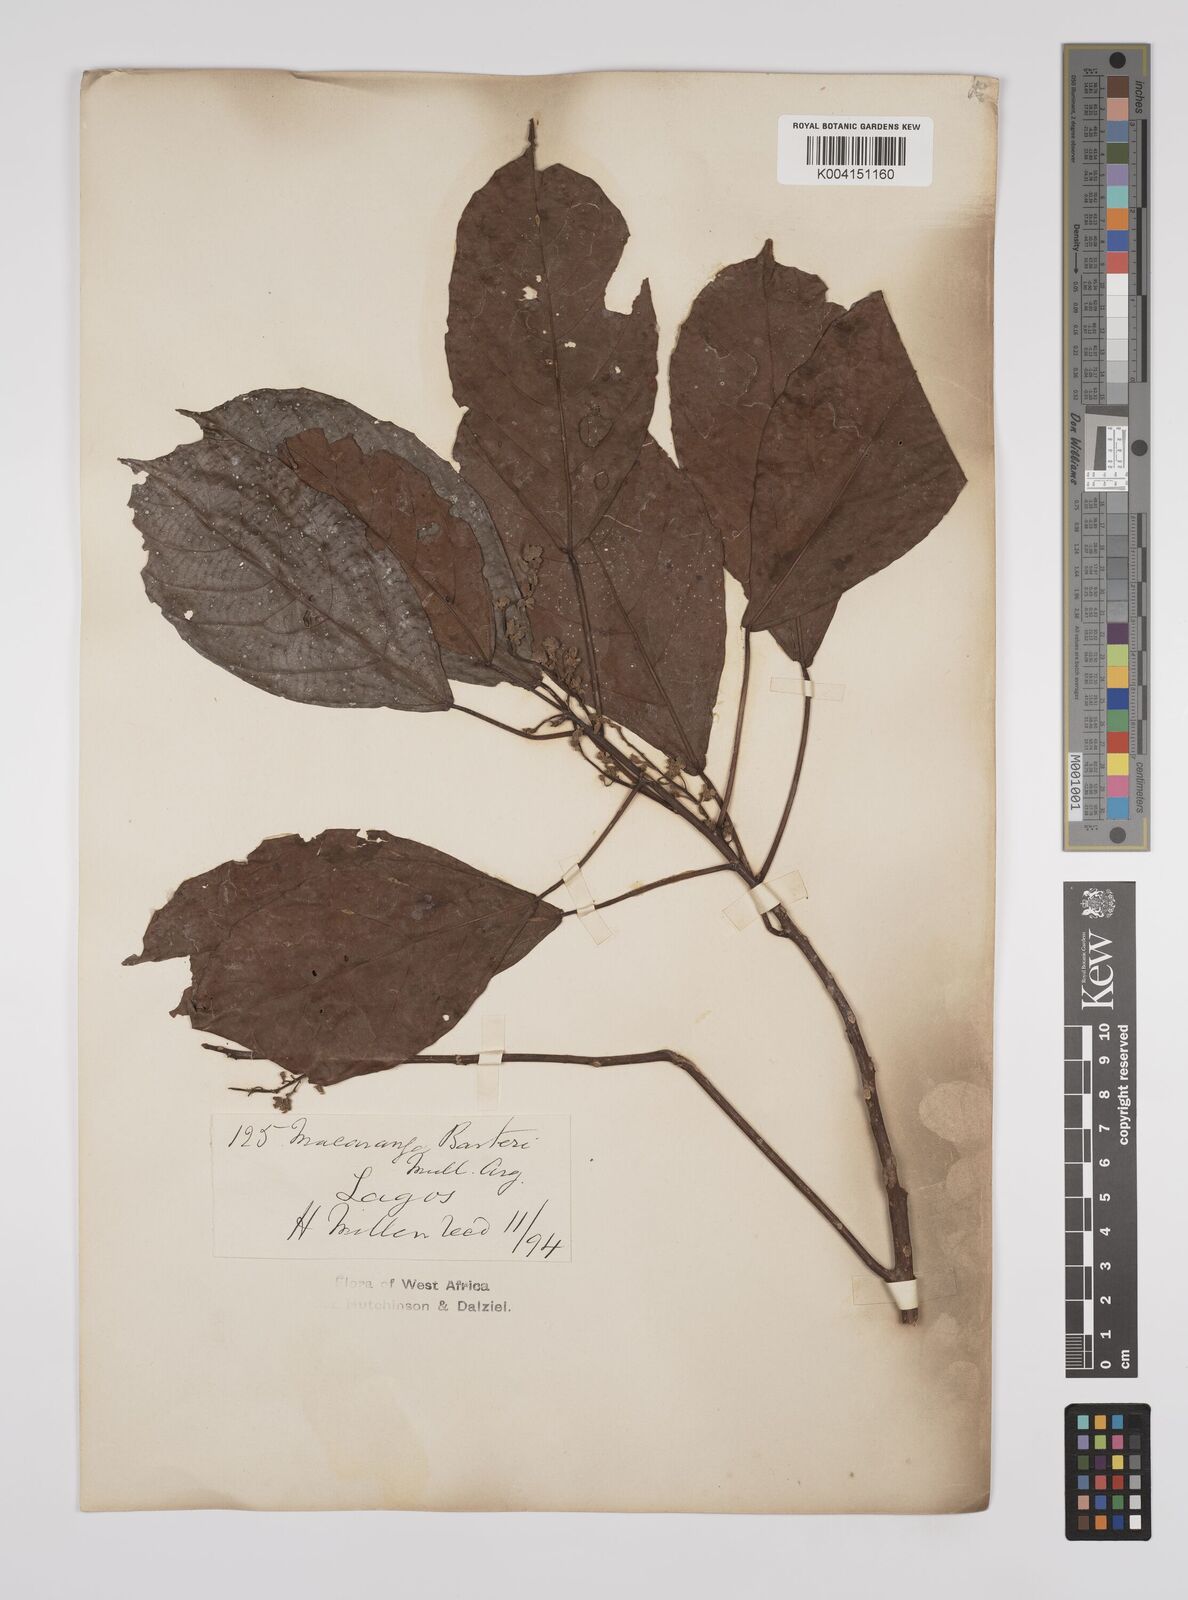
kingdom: Plantae
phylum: Tracheophyta
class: Magnoliopsida
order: Malpighiales
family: Euphorbiaceae
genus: Macaranga
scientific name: Macaranga barteri
